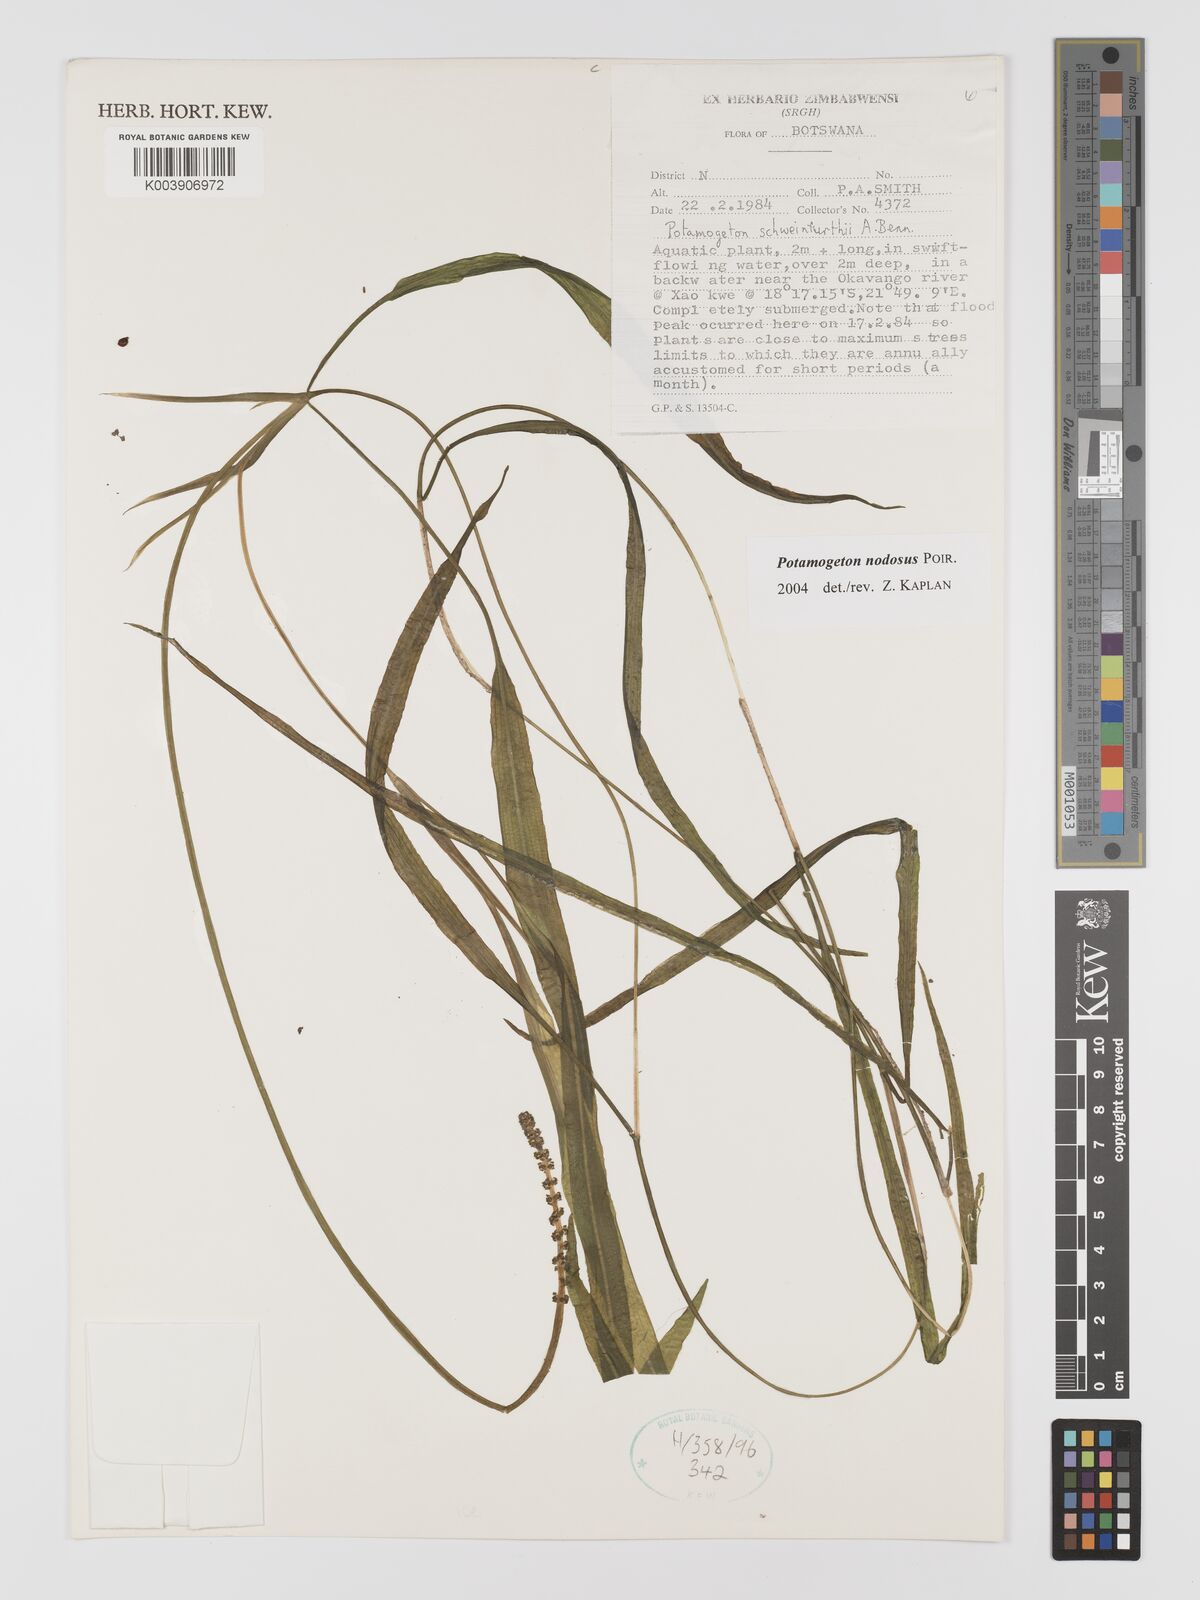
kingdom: Plantae
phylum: Tracheophyta
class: Liliopsida
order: Alismatales
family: Potamogetonaceae
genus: Potamogeton
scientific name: Potamogeton nodosus
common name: Loddon pondweed
